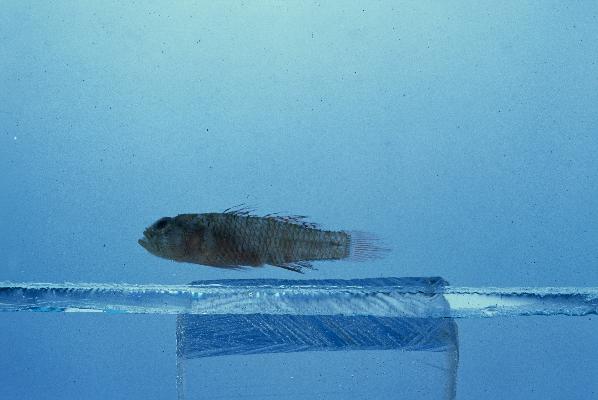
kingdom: Animalia
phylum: Chordata
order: Perciformes
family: Gobiidae
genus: Priolepis
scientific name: Priolepis inhaca
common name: Brick goby
